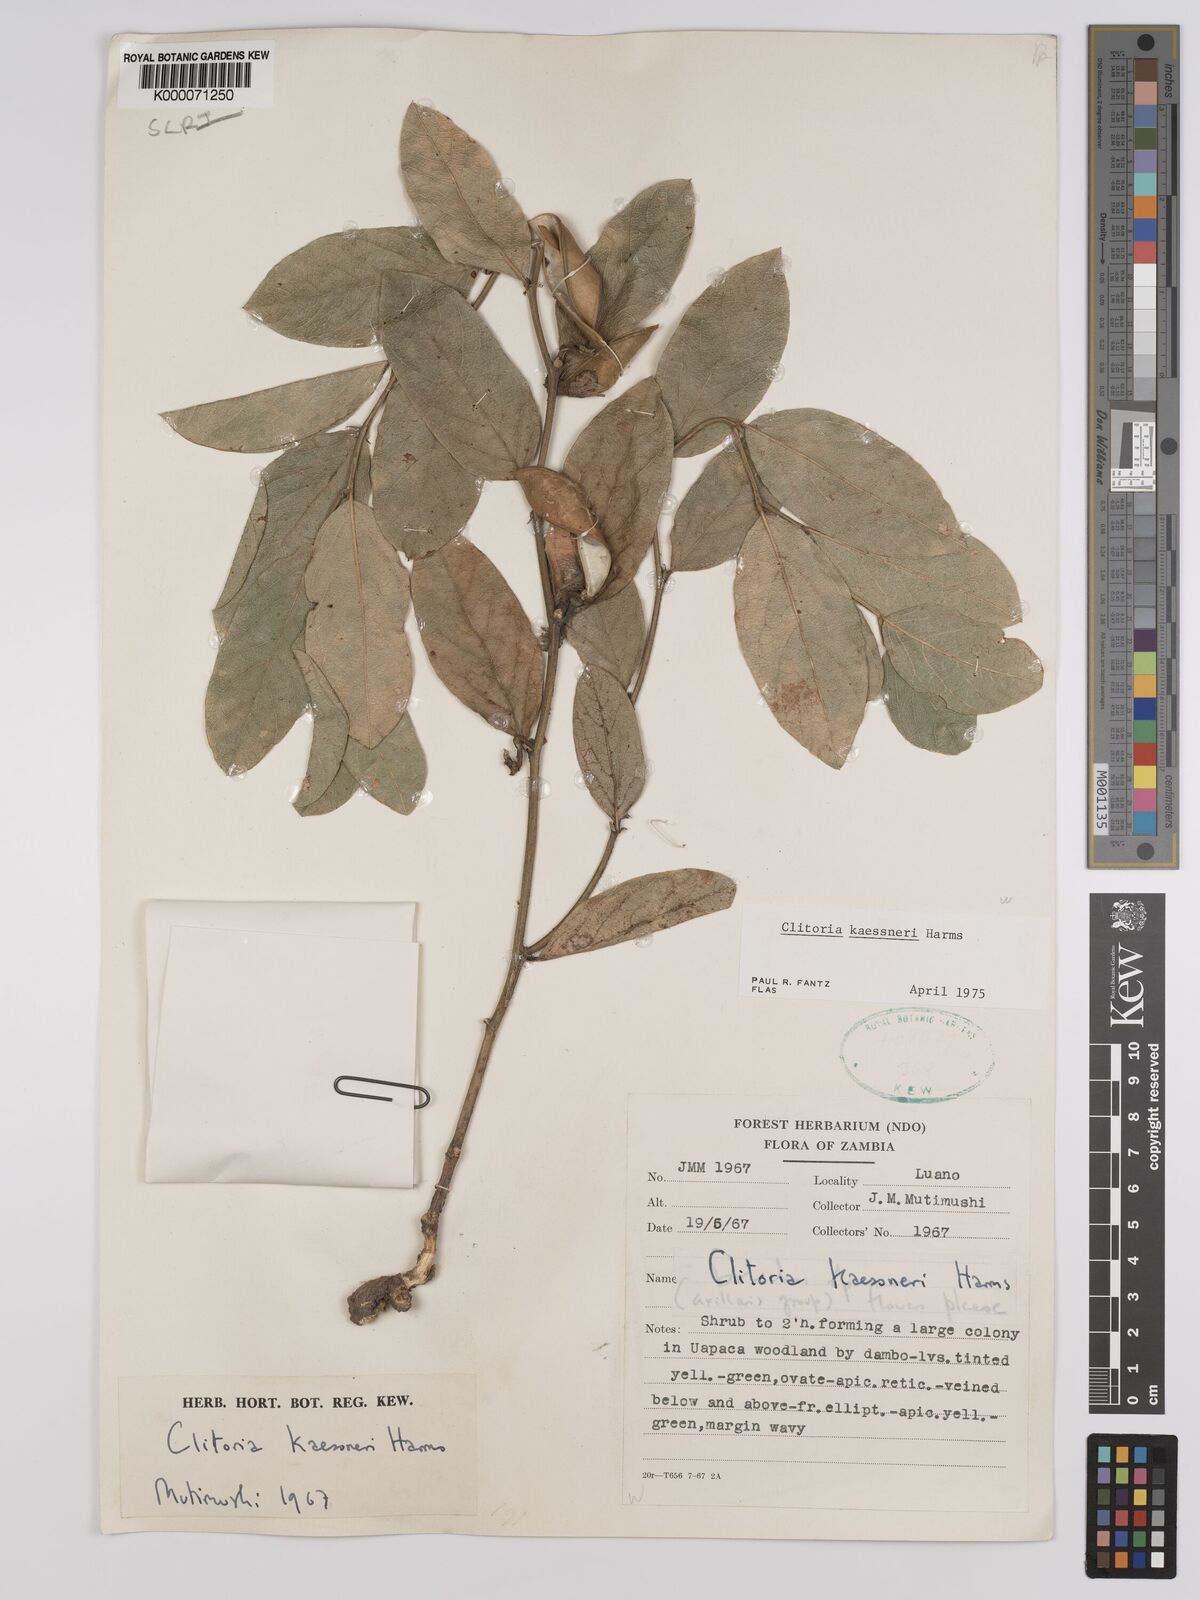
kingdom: Plantae
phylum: Tracheophyta
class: Magnoliopsida
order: Fabales
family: Fabaceae
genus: Clitoria
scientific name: Clitoria kaessneri
